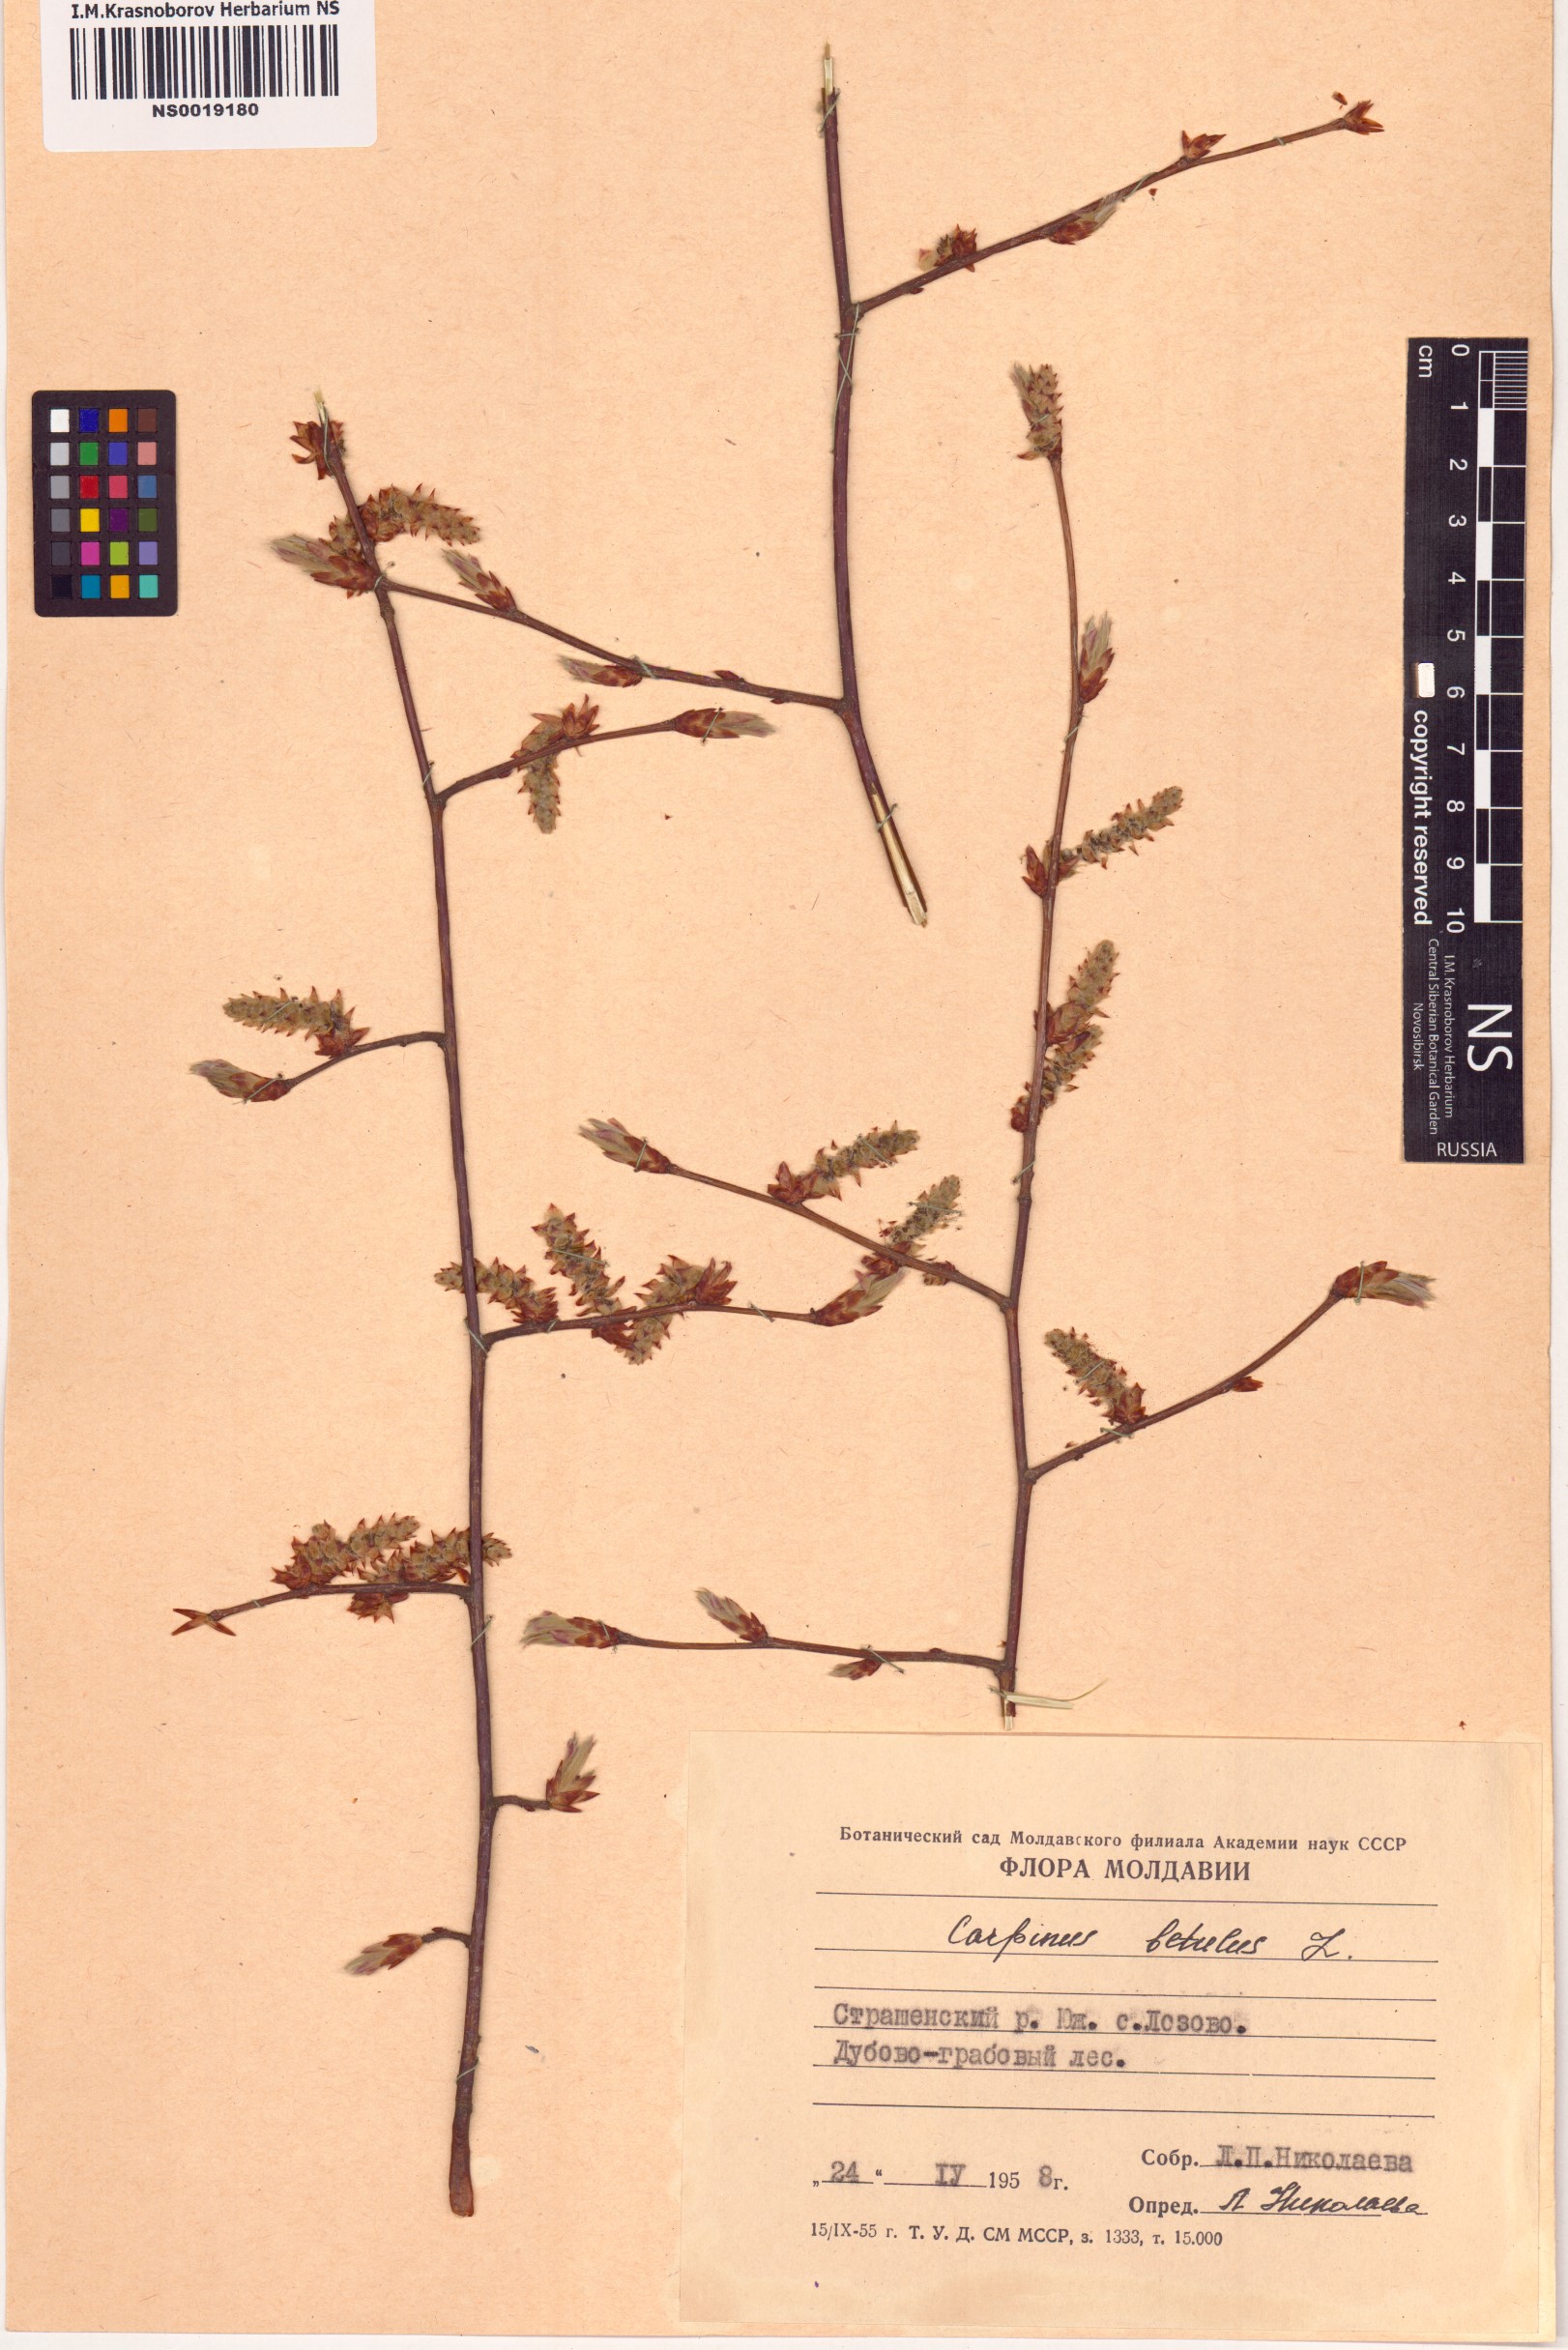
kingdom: Plantae
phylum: Tracheophyta
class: Magnoliopsida
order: Fagales
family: Betulaceae
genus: Carpinus
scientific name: Carpinus betulus
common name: Hornbeam
